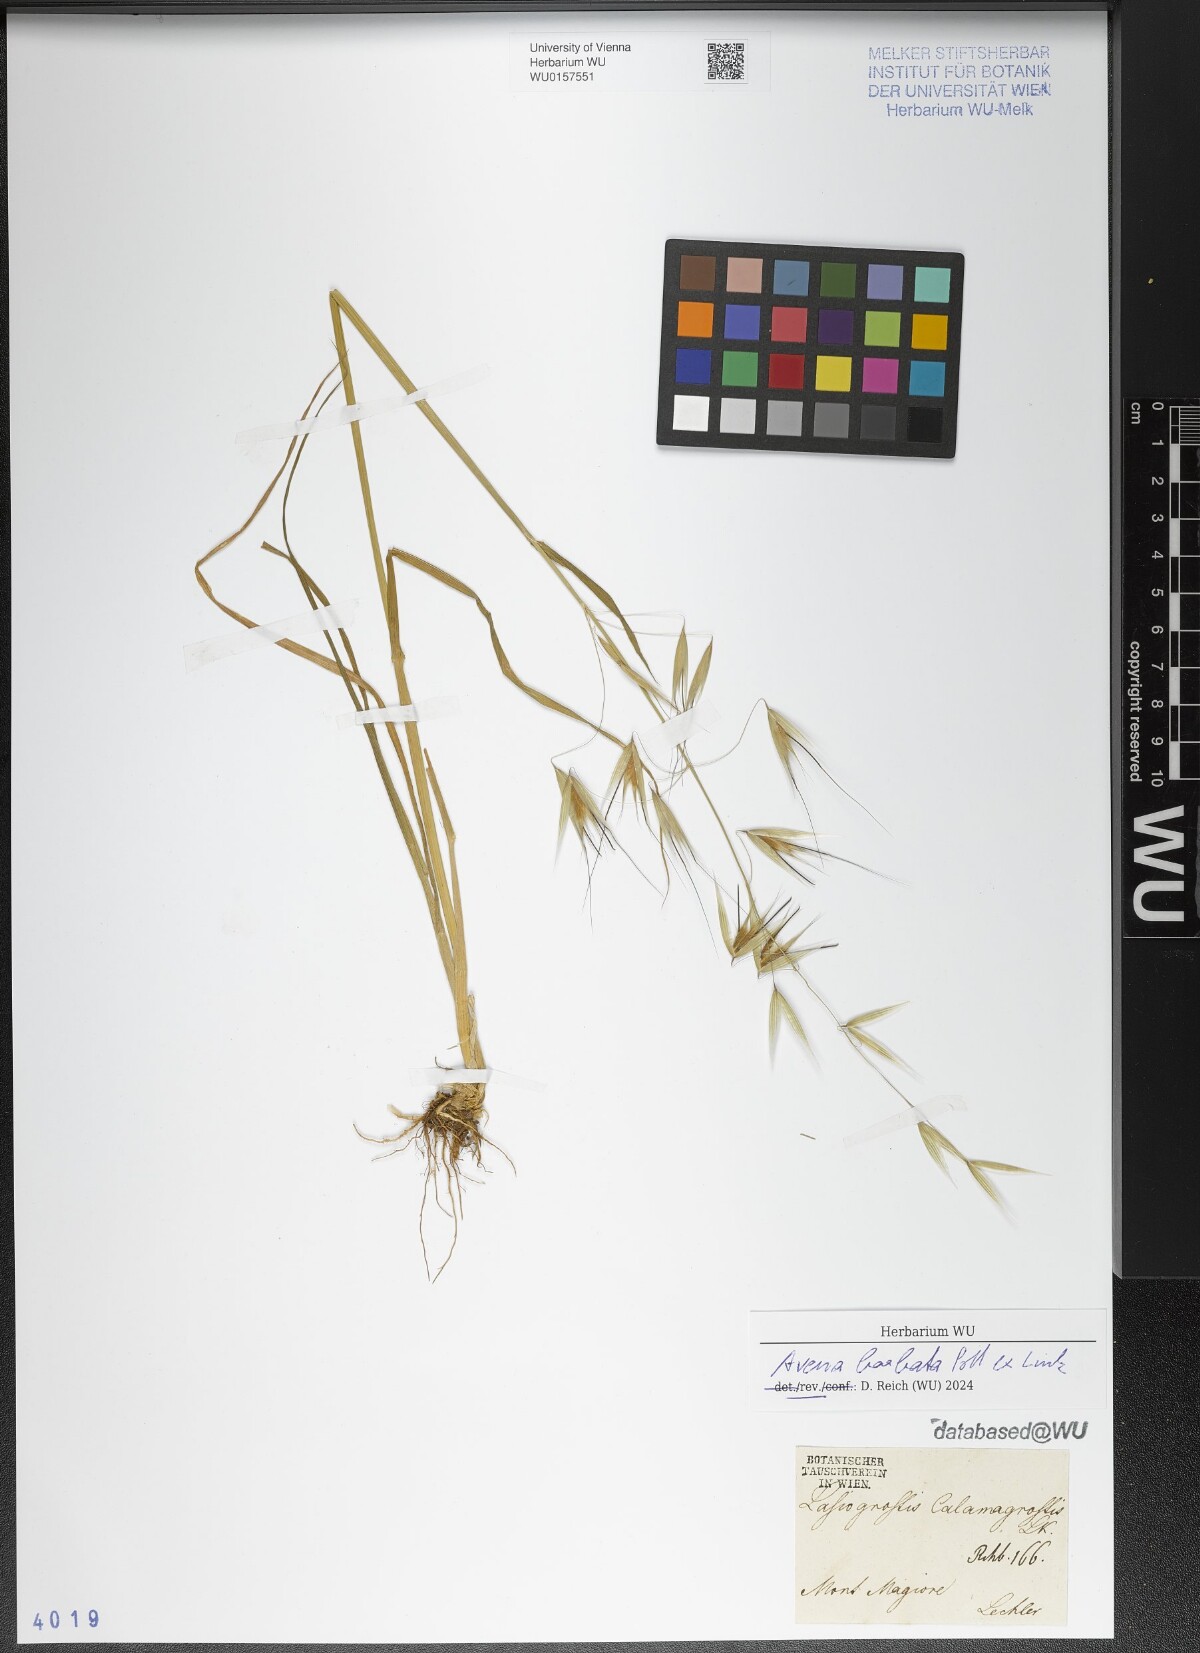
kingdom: Plantae
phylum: Tracheophyta
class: Liliopsida
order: Poales
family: Poaceae
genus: Avena
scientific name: Avena barbata
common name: Slender oat
